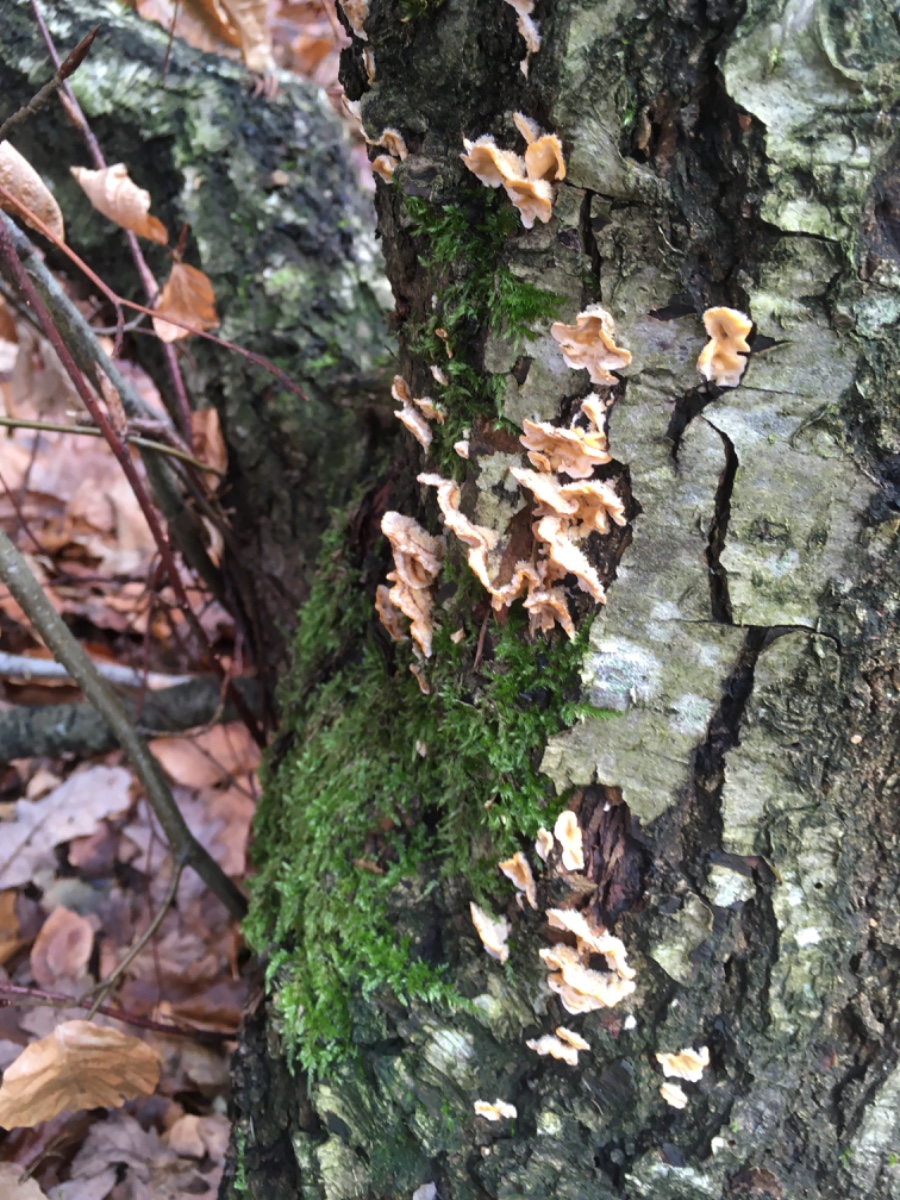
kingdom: Fungi
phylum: Basidiomycota
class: Agaricomycetes
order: Russulales
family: Stereaceae
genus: Stereum
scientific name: Stereum hirsutum
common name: håret lædersvamp
